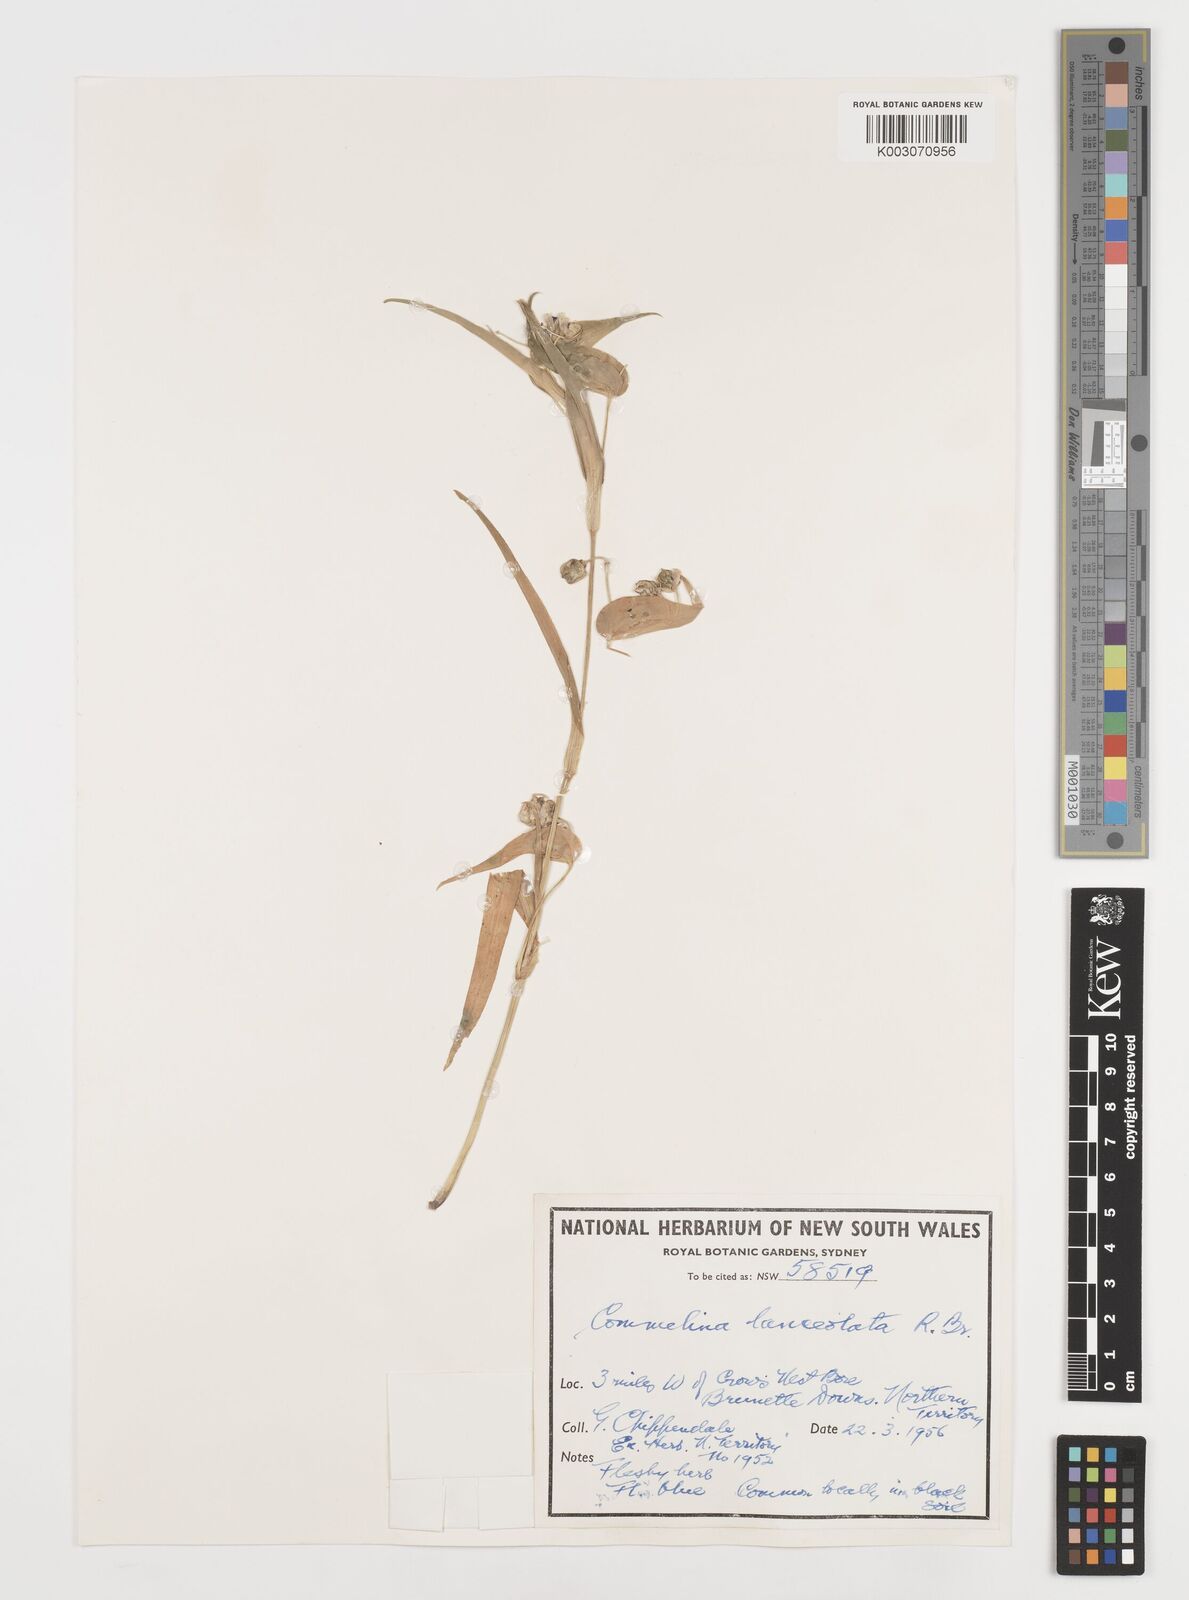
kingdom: Plantae
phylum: Tracheophyta
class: Liliopsida
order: Commelinales
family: Commelinaceae
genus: Commelina
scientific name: Commelina lanceolata
